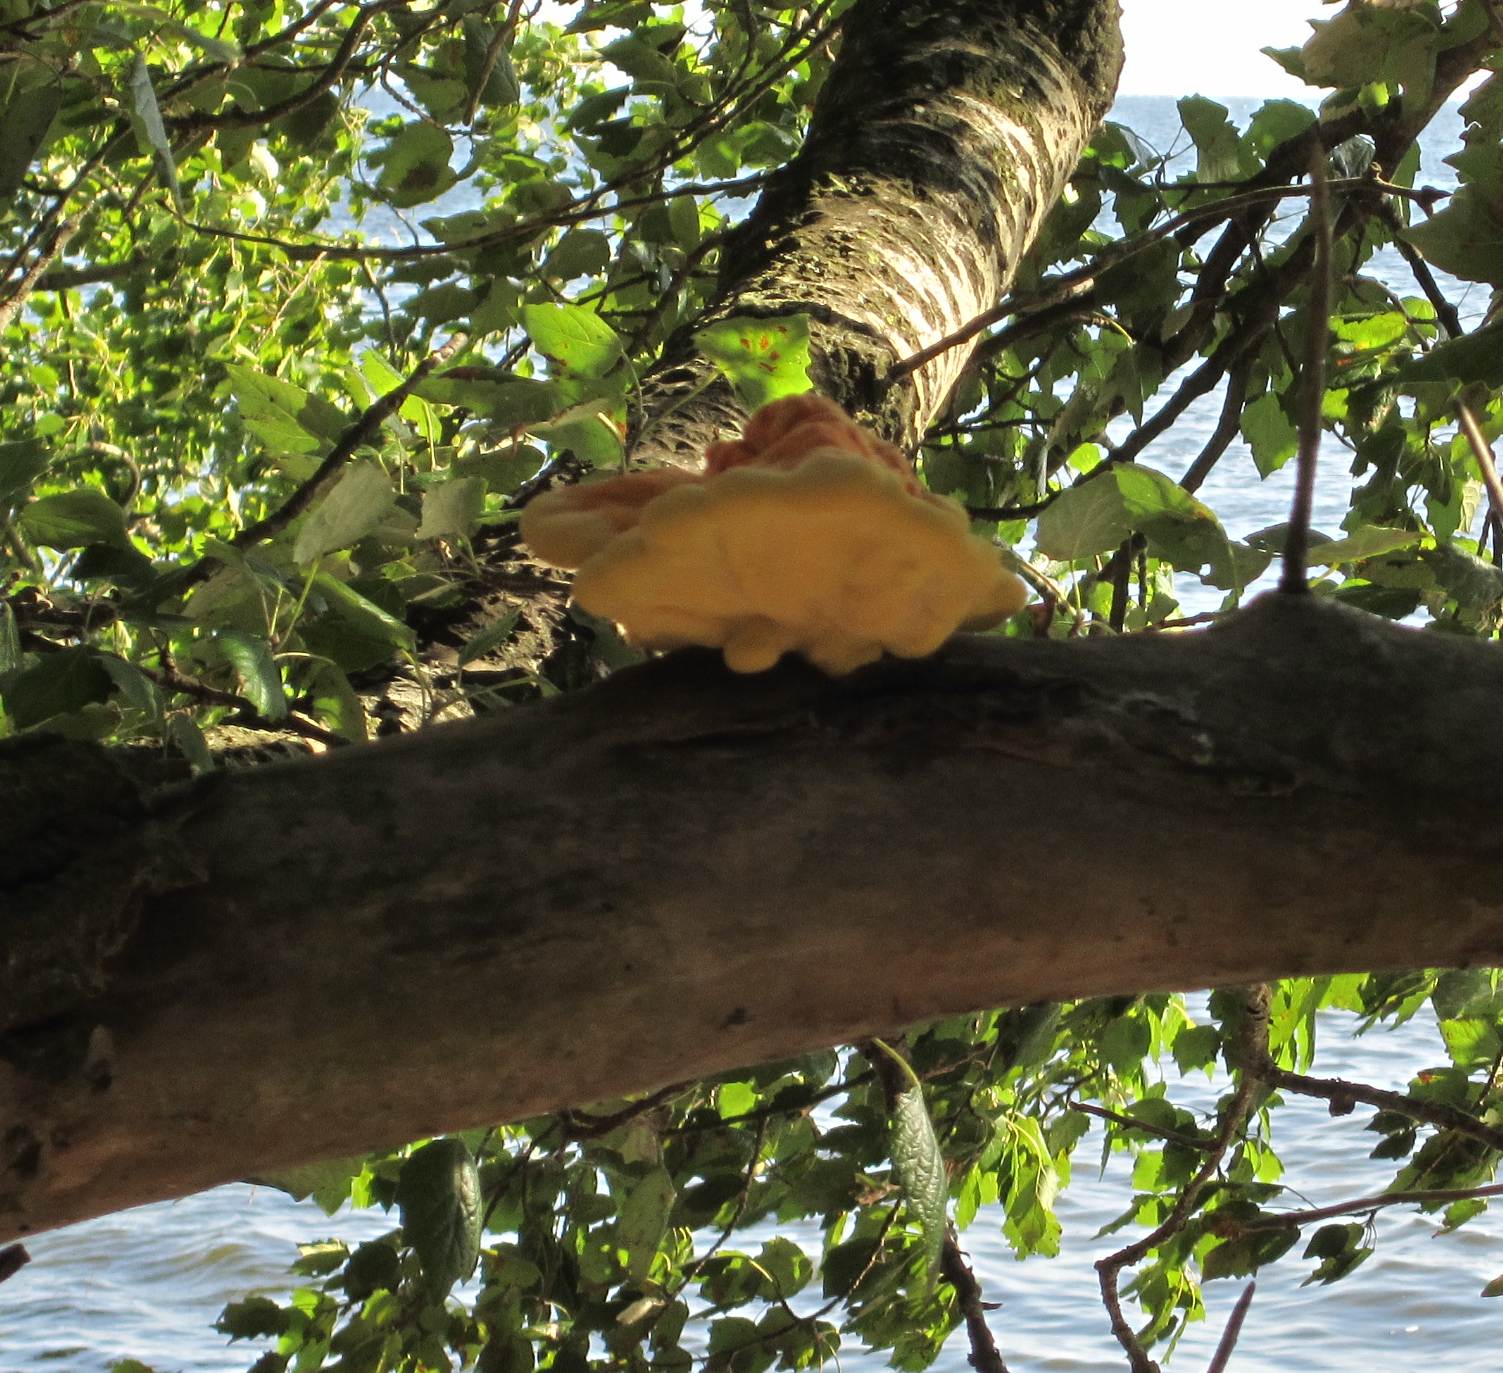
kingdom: Fungi
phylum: Basidiomycota
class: Agaricomycetes
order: Polyporales
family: Laetiporaceae
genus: Laetiporus
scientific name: Laetiporus sulphureus
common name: svovlporesvamp
